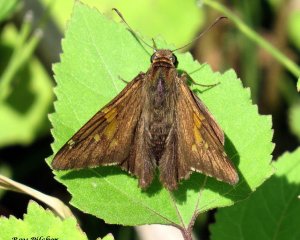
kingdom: Animalia
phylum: Arthropoda
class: Insecta
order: Lepidoptera
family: Hesperiidae
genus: Epargyreus
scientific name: Epargyreus clarus
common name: Silver-spotted Skipper
